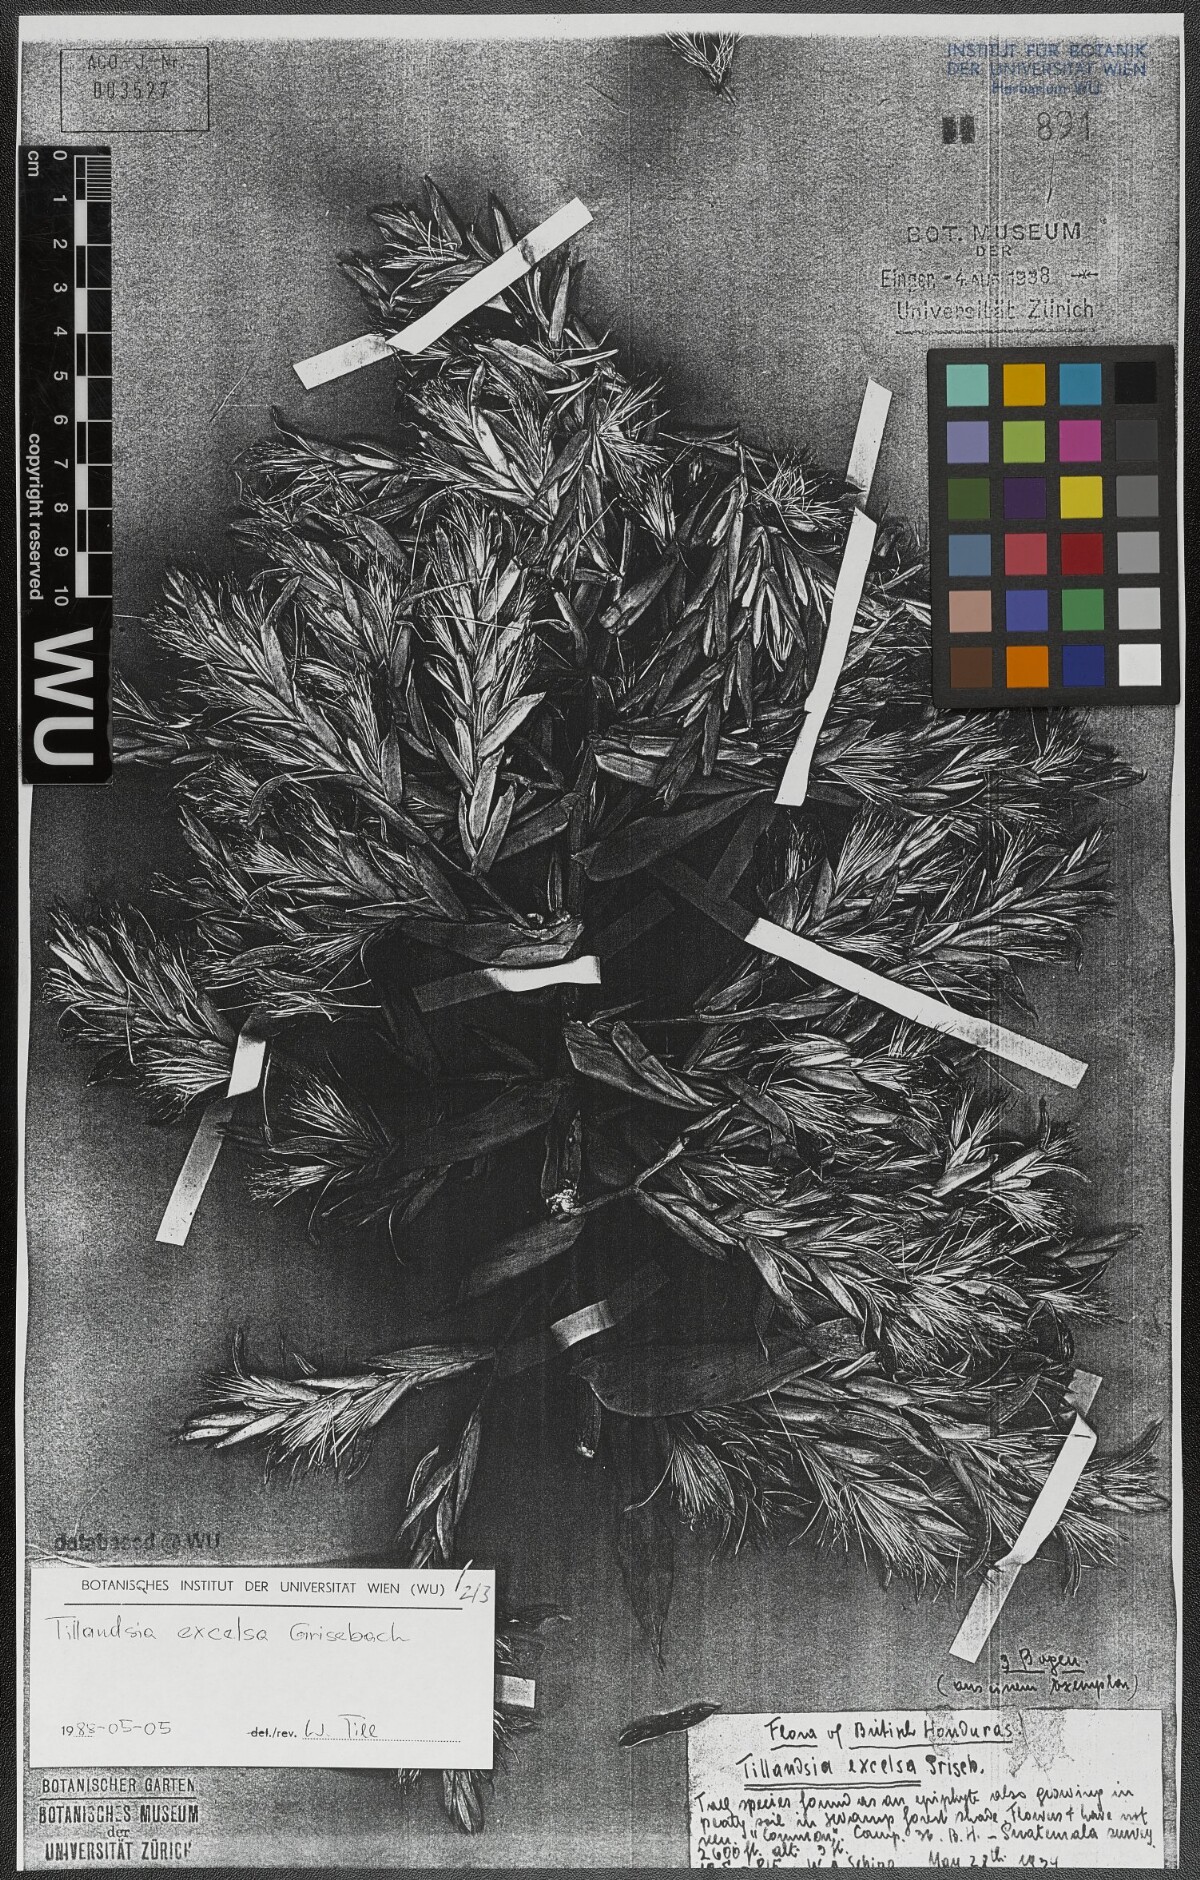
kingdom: Plantae
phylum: Tracheophyta
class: Liliopsida
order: Poales
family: Bromeliaceae
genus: Tillandsia
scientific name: Tillandsia excelsa
